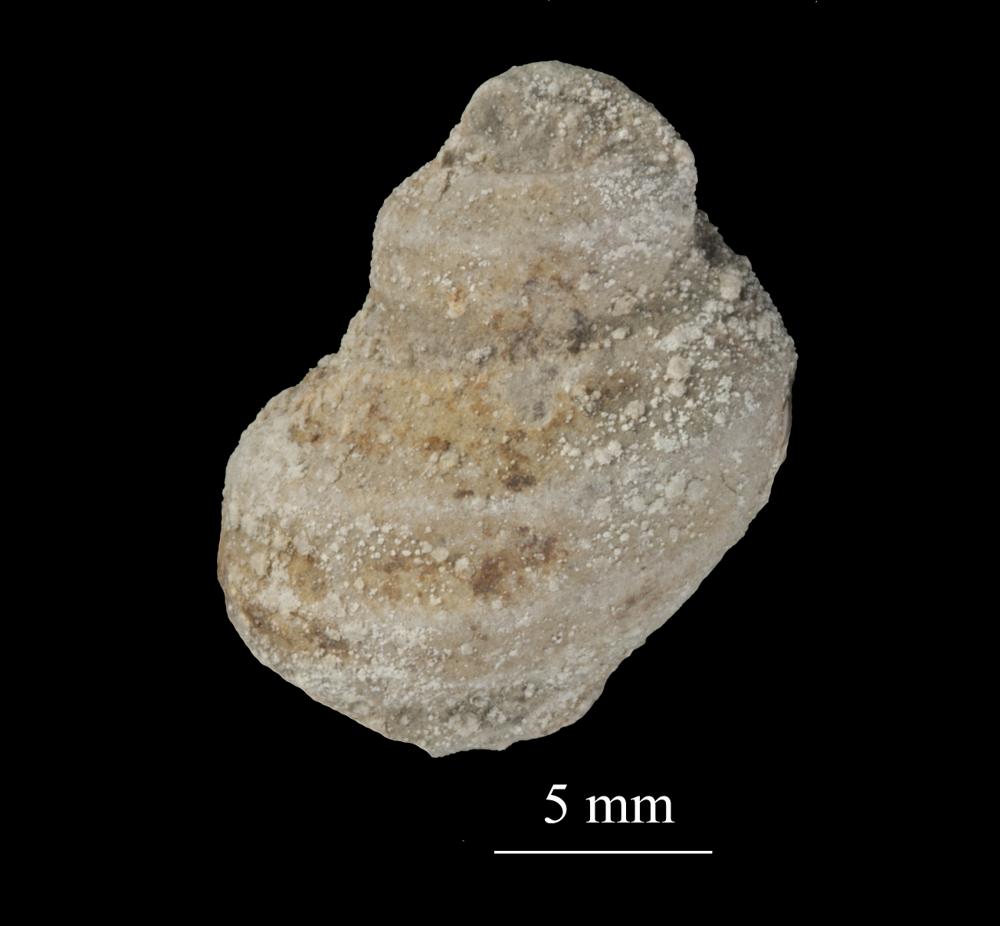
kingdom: Animalia
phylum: Mollusca
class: Gastropoda
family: Lophospiridae
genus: Ruedemannia
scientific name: Ruedemannia Worthenia borkholmiensis
